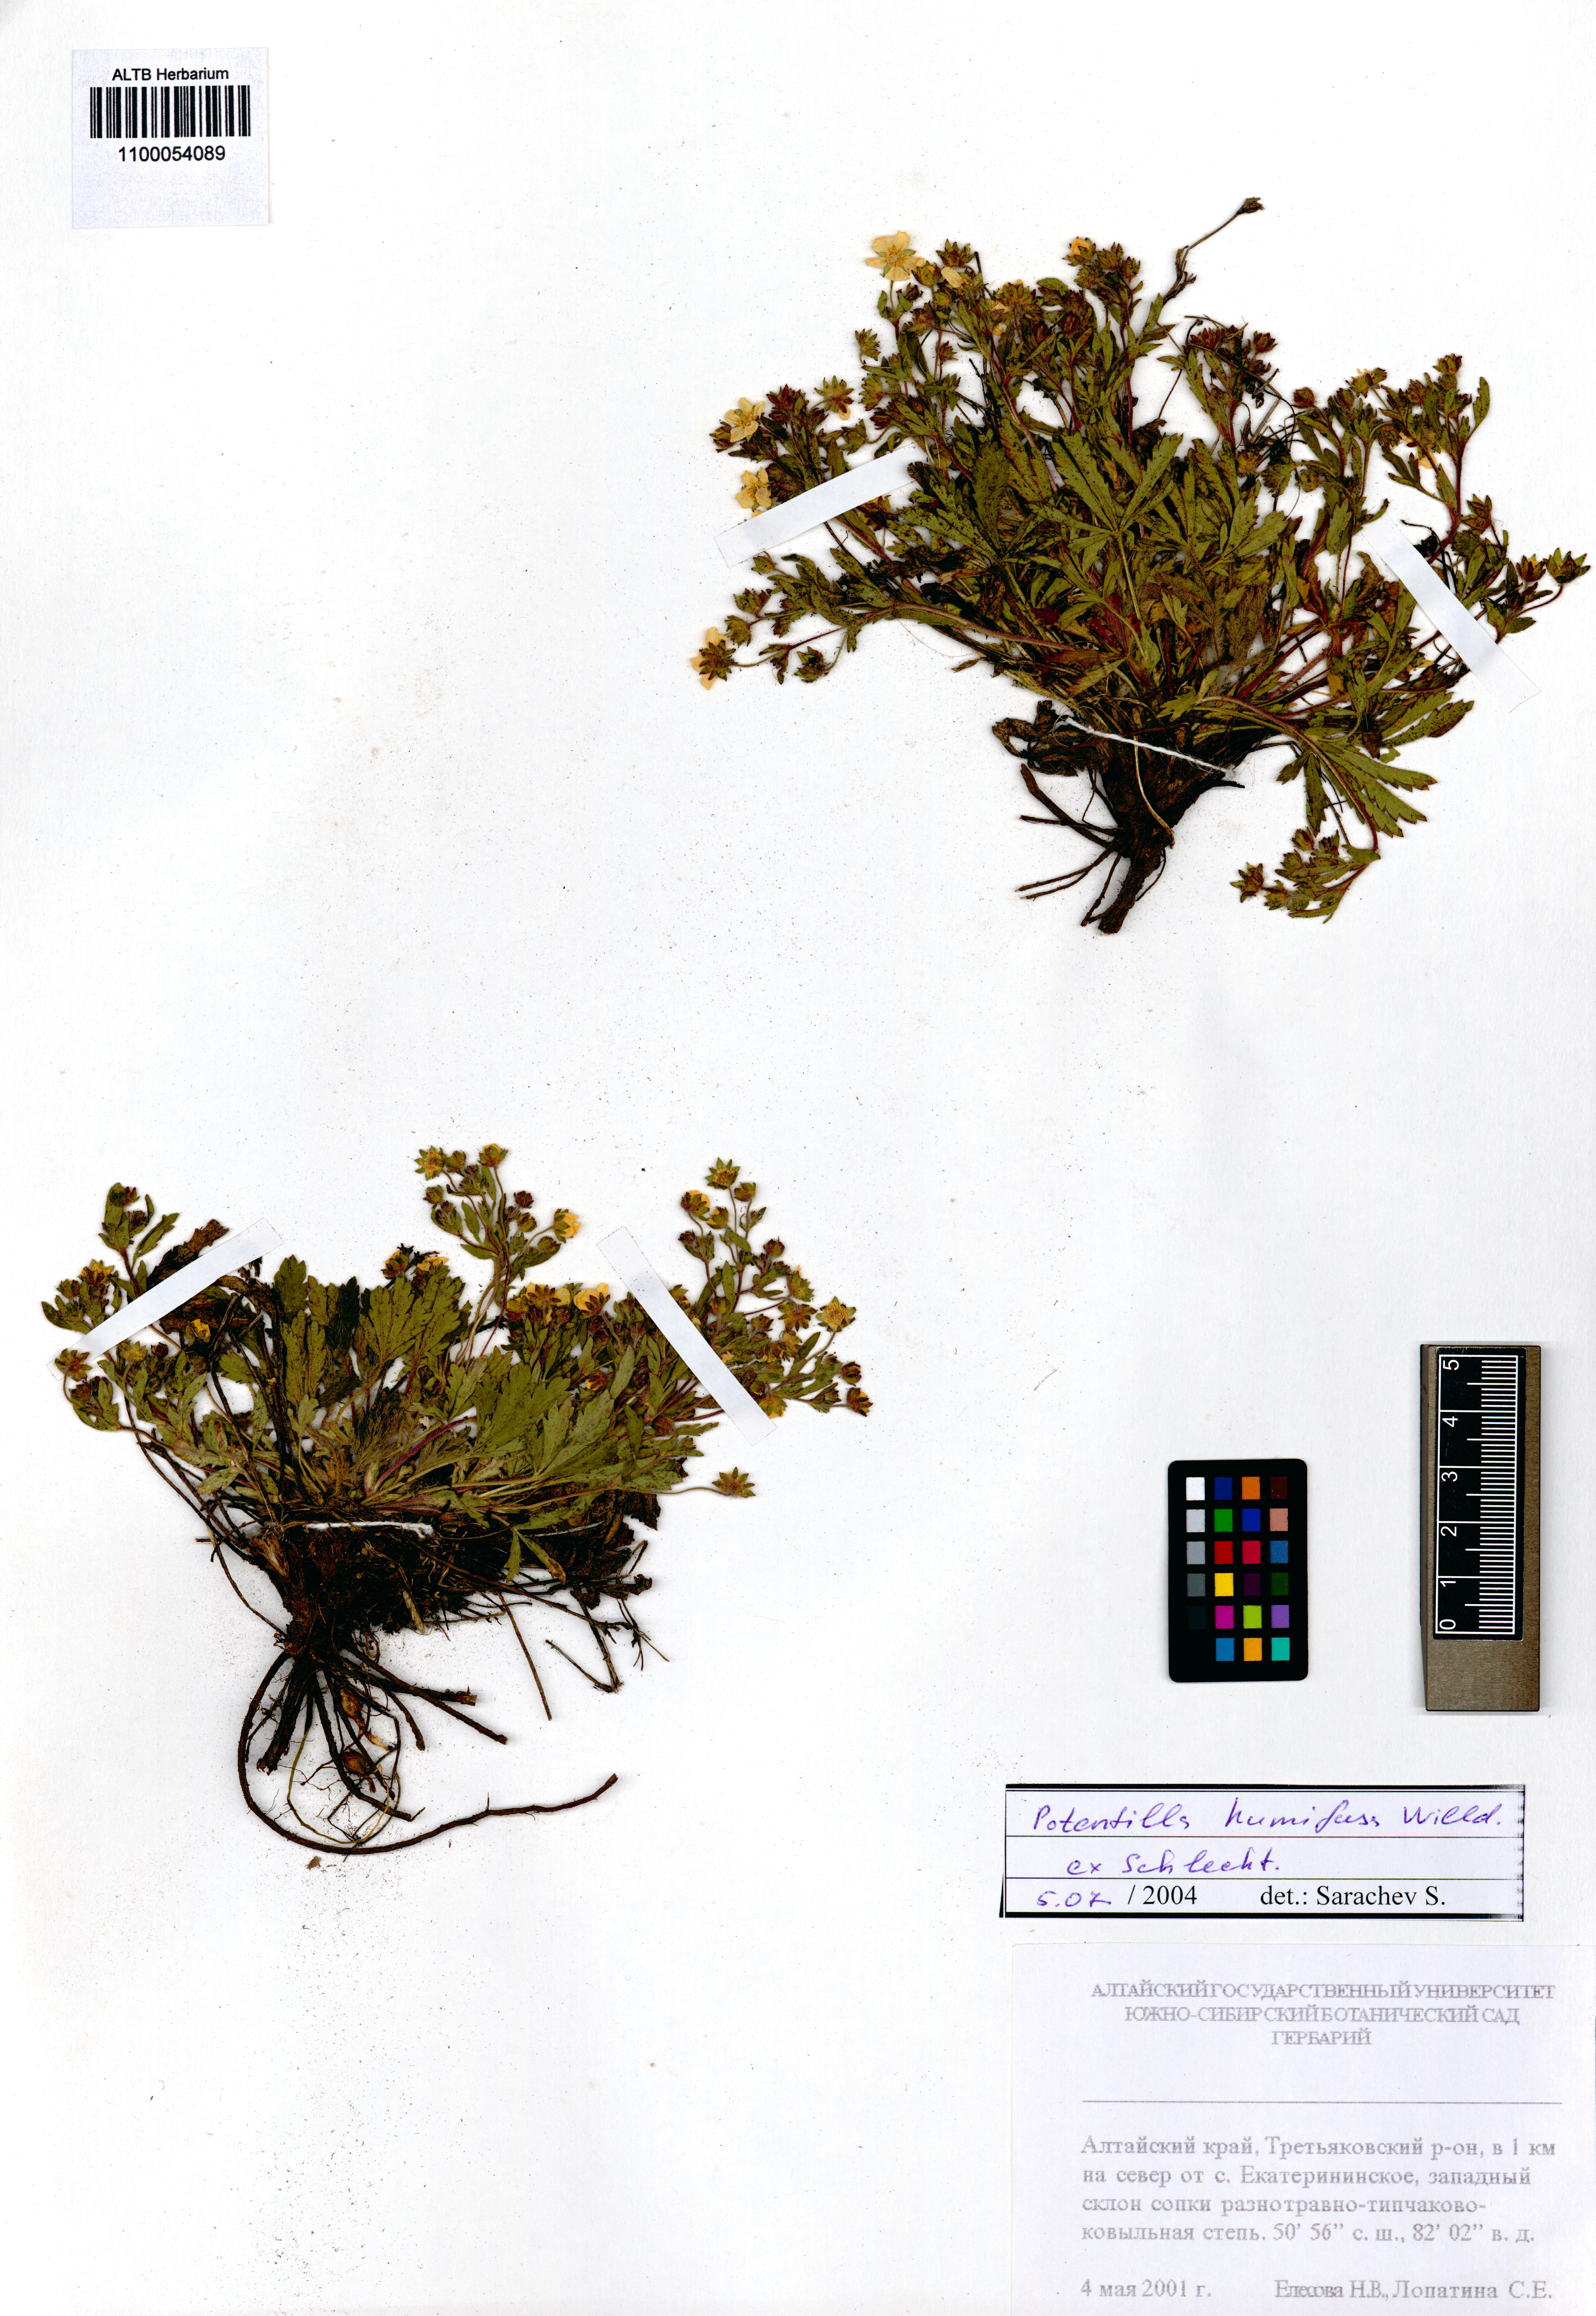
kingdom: Plantae
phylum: Tracheophyta
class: Magnoliopsida
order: Rosales
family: Rosaceae
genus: Potentilla
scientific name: Potentilla humifusa
